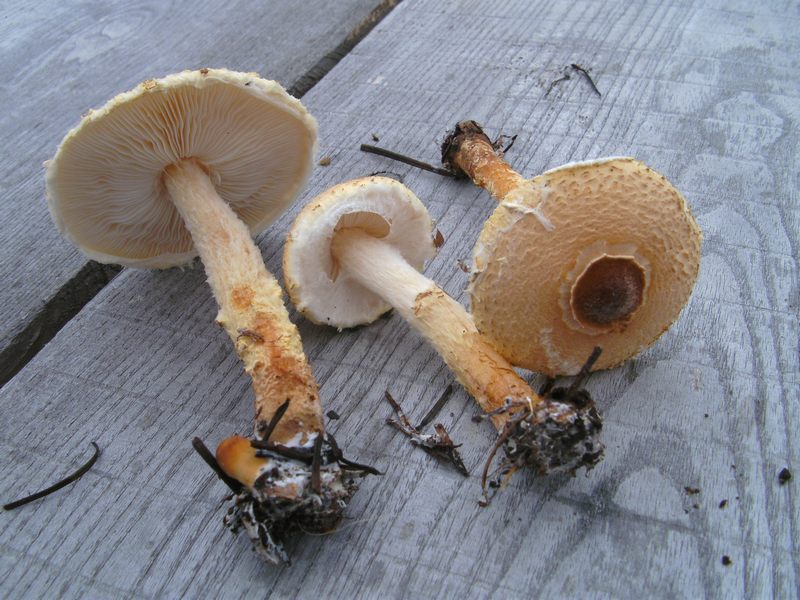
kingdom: Fungi
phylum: Basidiomycota
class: Agaricomycetes
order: Agaricales
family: Agaricaceae
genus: Lepiota
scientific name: Lepiota magnispora
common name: gulfnugget parasolhat
